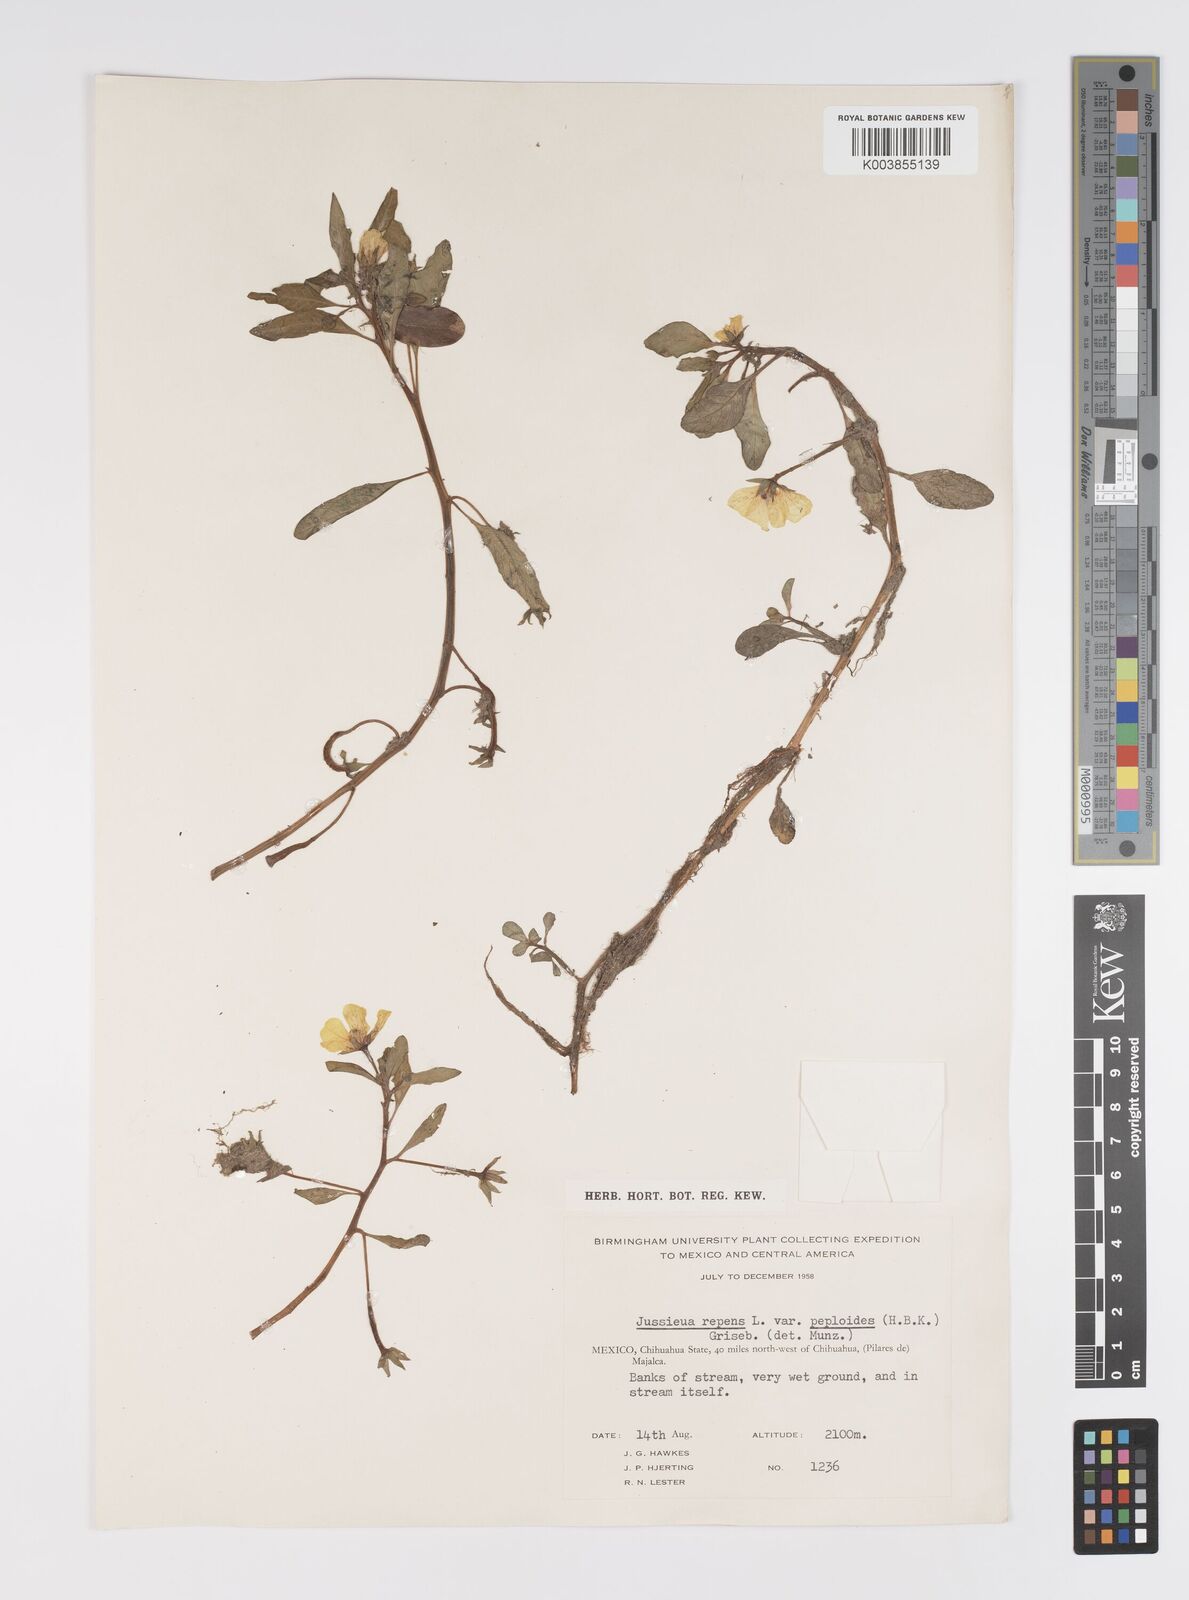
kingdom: Plantae
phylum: Tracheophyta
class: Magnoliopsida
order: Myrtales
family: Onagraceae
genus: Ludwigia
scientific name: Ludwigia adscendens
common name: Creeping water primrose
